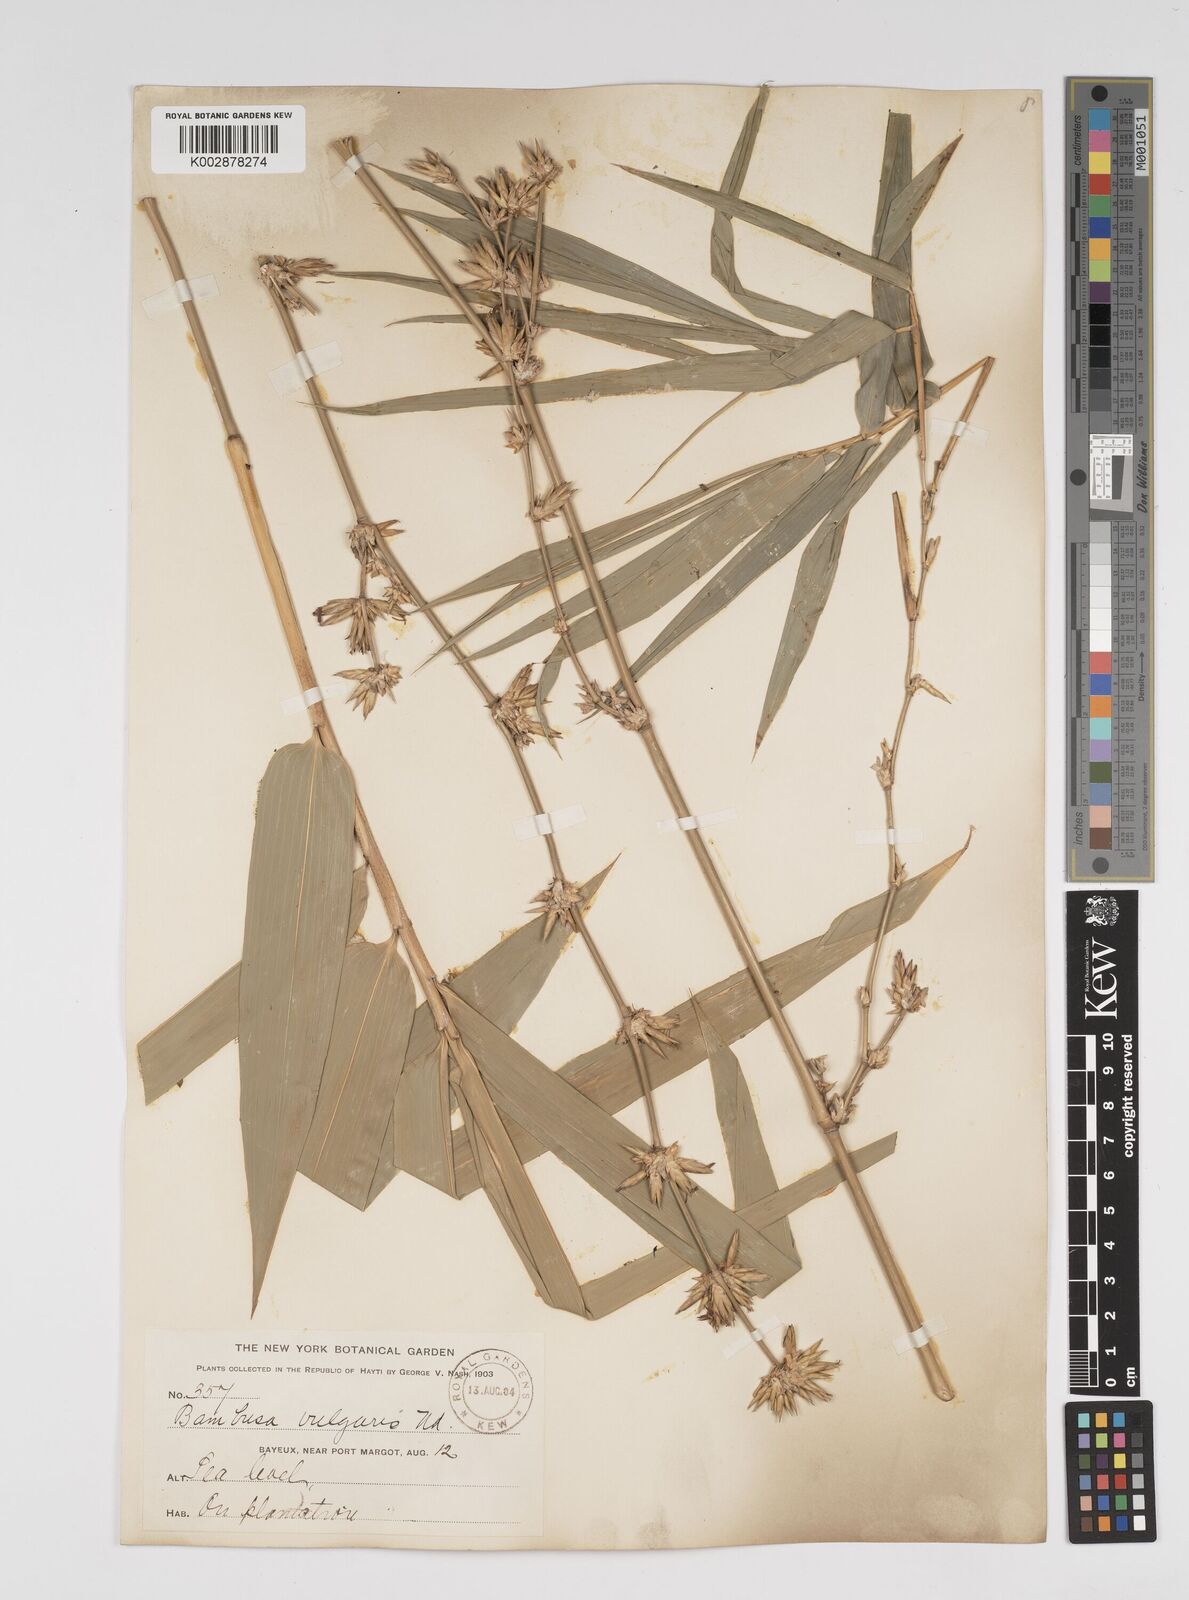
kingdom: Plantae
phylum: Tracheophyta
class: Liliopsida
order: Poales
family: Poaceae
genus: Bambusa
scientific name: Bambusa vulgaris
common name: Common bamboo
